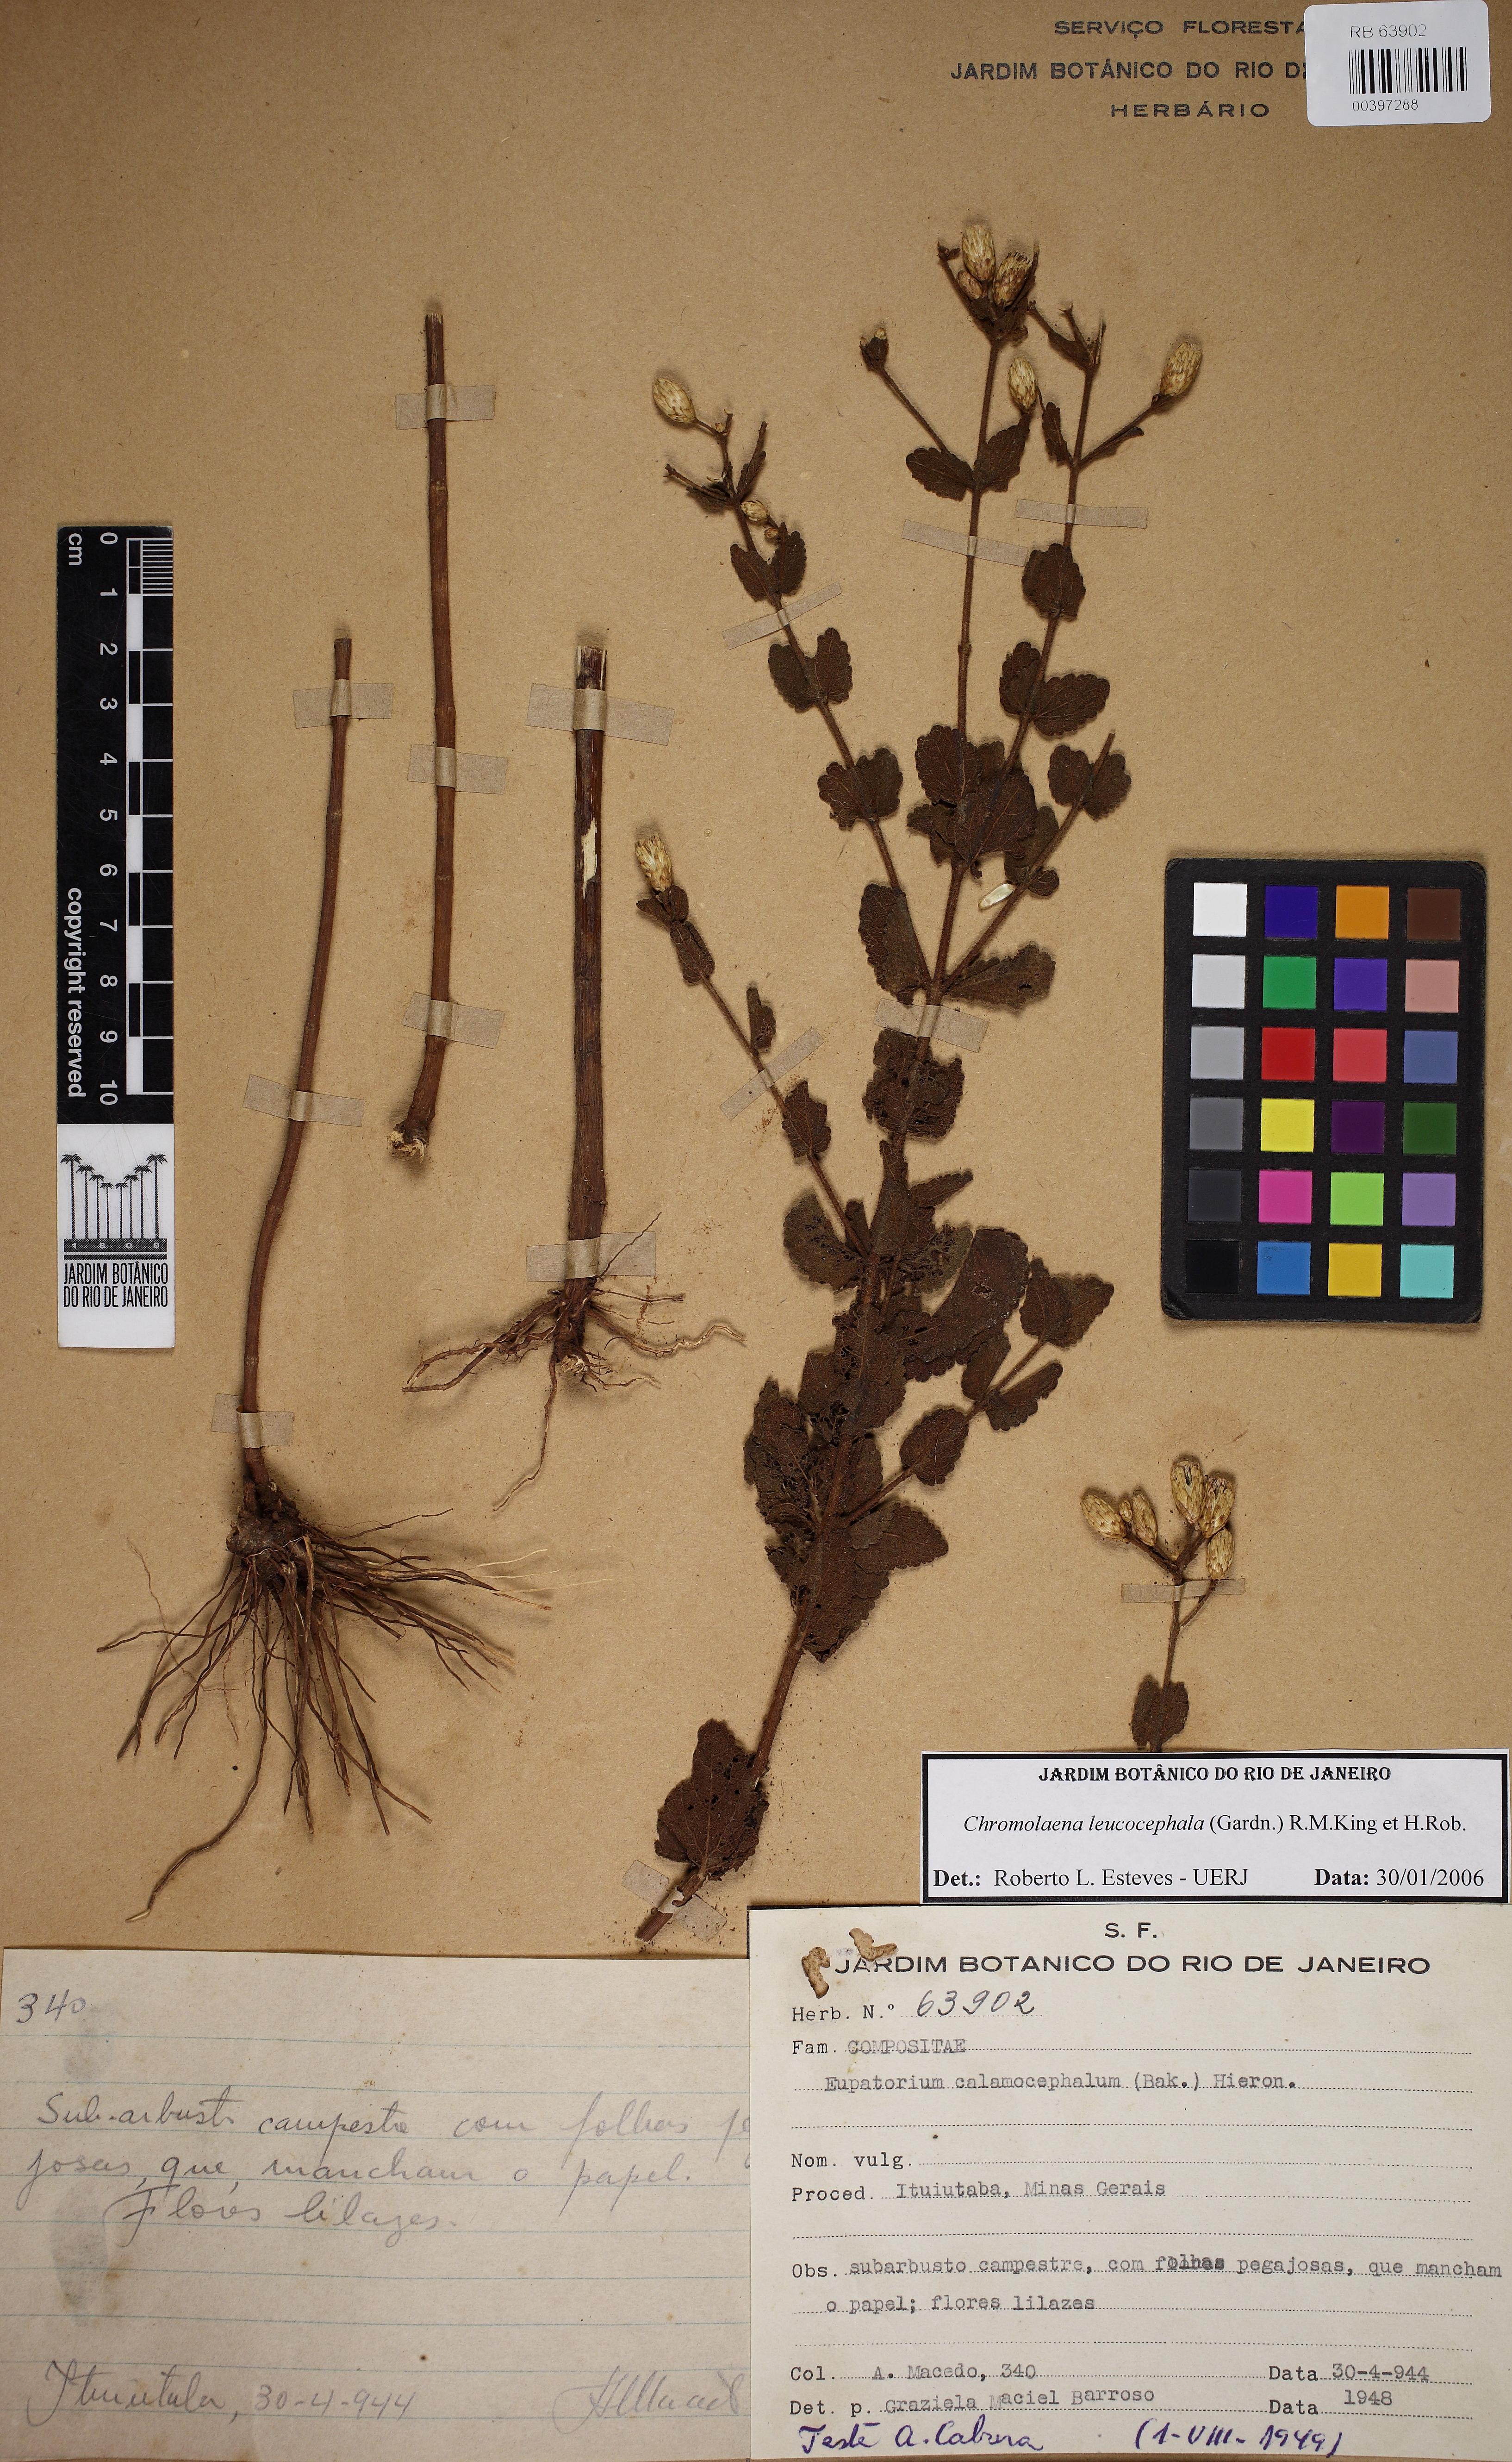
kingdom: Plantae
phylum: Tracheophyta
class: Magnoliopsida
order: Asterales
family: Asteraceae
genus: Chromolaena
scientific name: Chromolaena leucocephala
